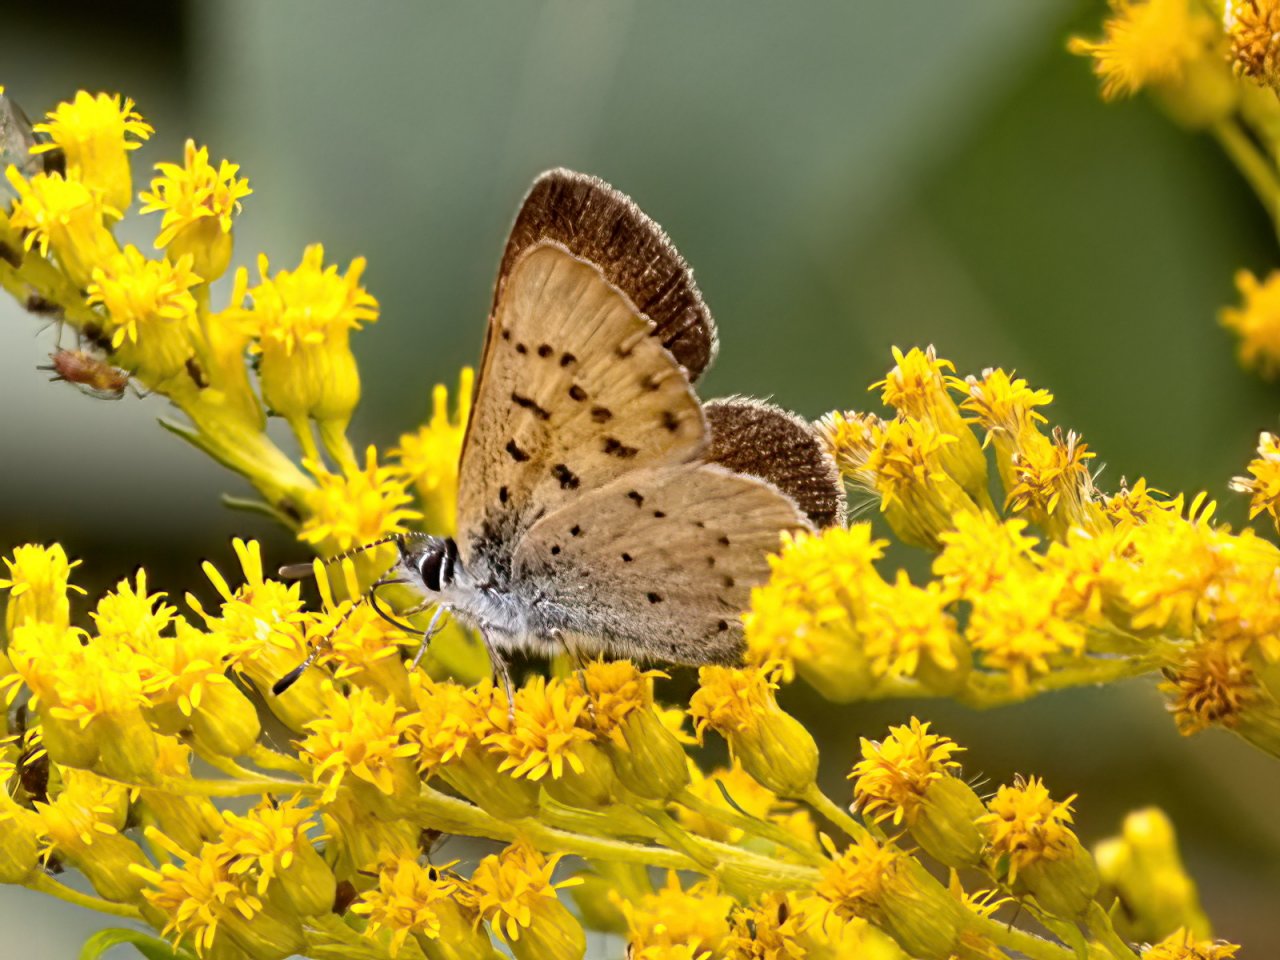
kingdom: Animalia
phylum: Arthropoda
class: Insecta
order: Lepidoptera
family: Lycaenidae
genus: Epidemia
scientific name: Epidemia dorcas
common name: Dorcas Copper
